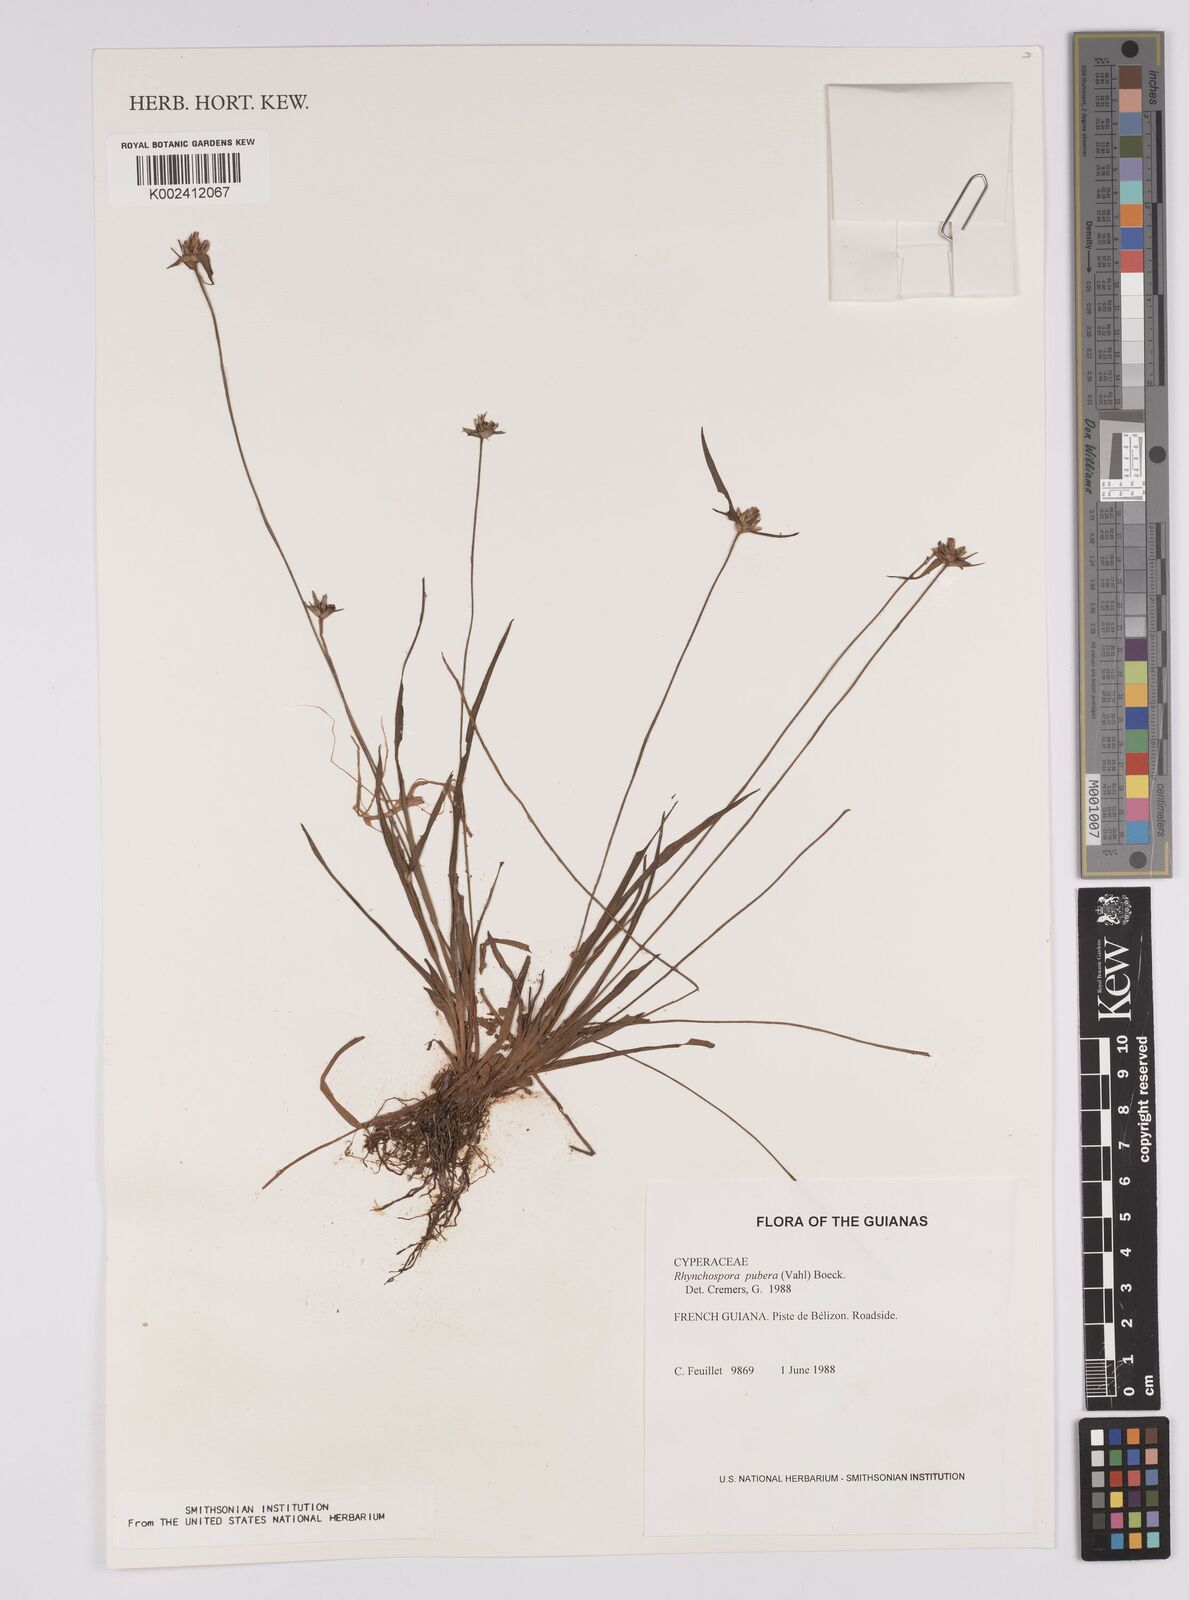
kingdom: Plantae
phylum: Tracheophyta
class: Liliopsida
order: Poales
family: Cyperaceae
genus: Rhynchospora
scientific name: Rhynchospora pubera
